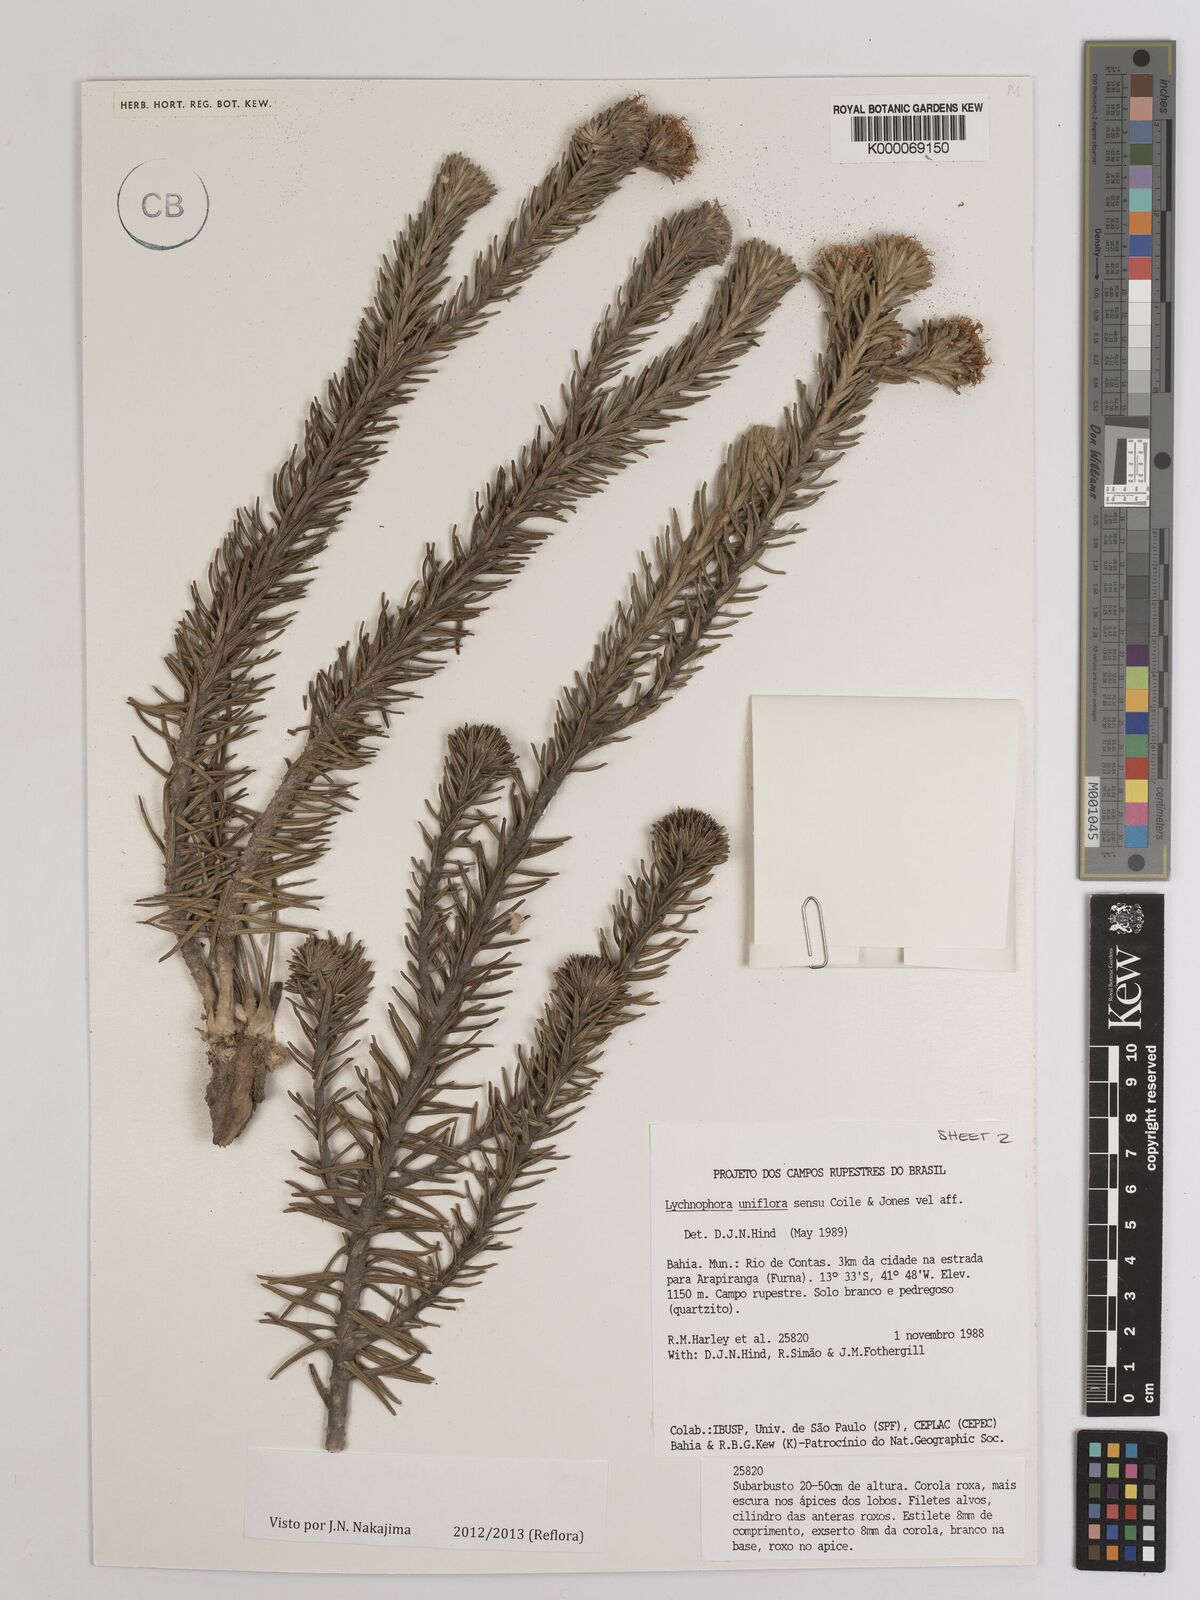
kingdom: Plantae
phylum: Tracheophyta
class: Magnoliopsida
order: Asterales
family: Asteraceae
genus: Lychnophora
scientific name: Lychnophora uniflora
